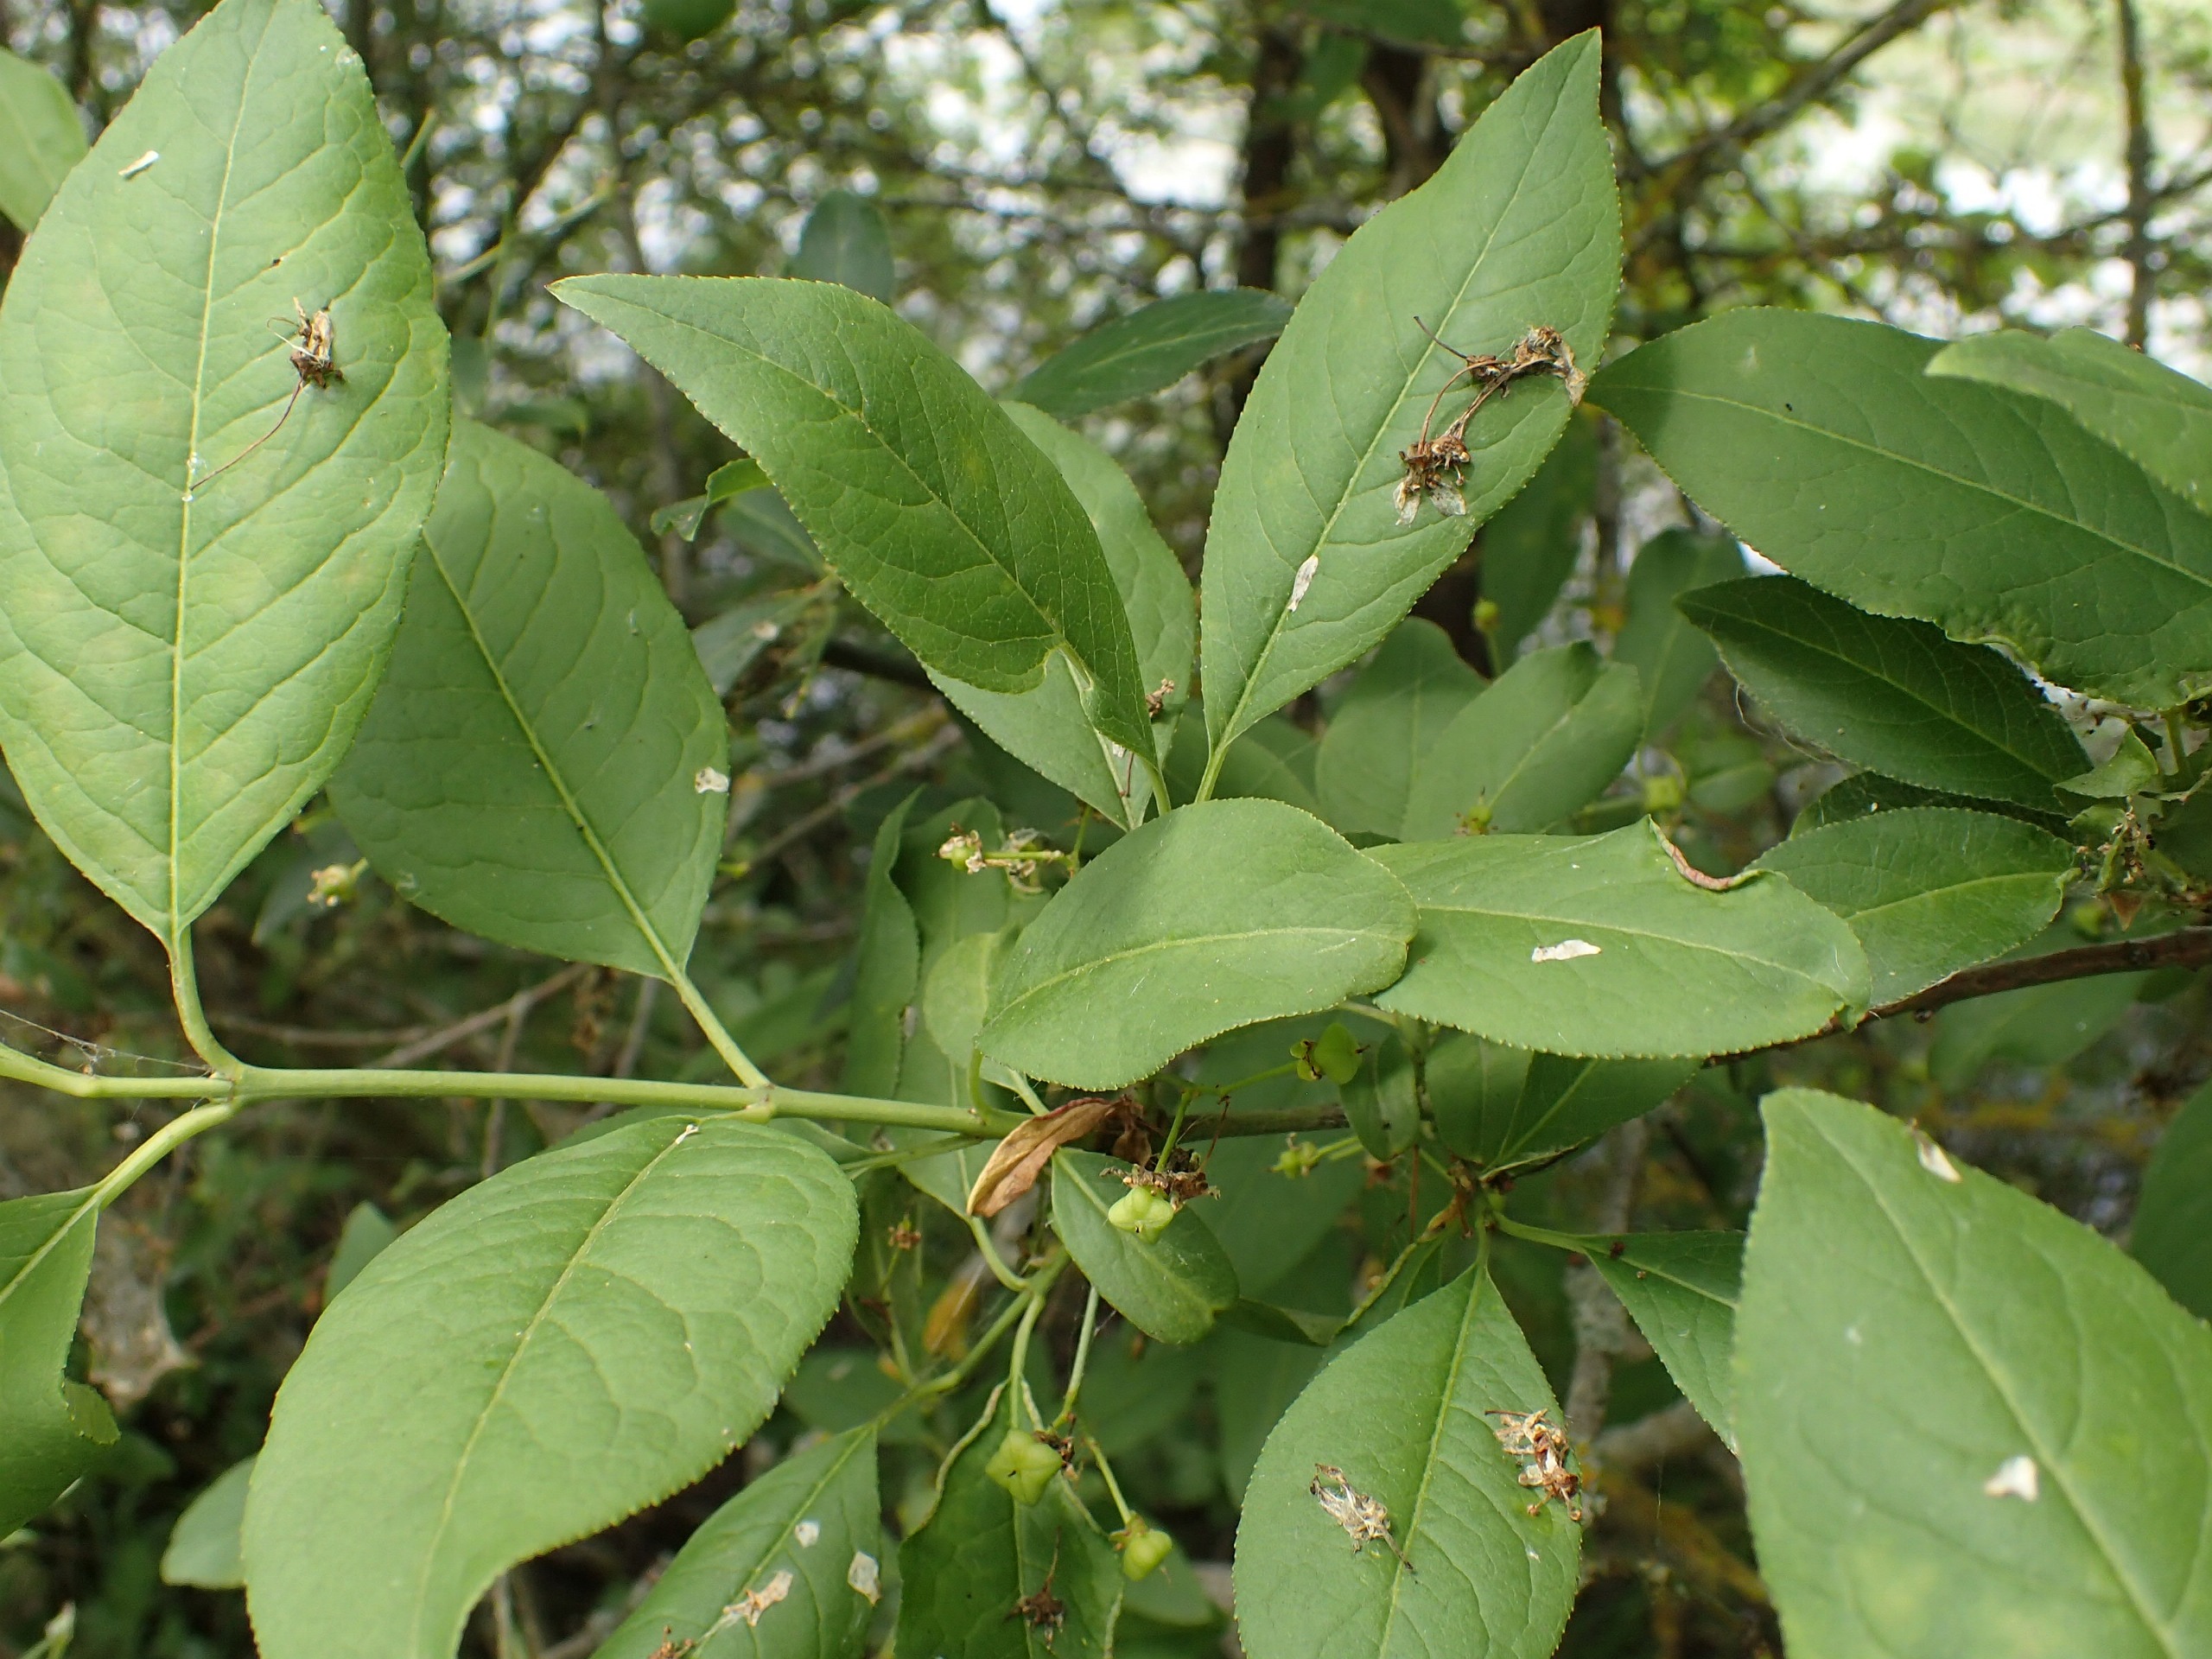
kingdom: Plantae
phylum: Tracheophyta
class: Magnoliopsida
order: Celastrales
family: Celastraceae
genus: Euonymus
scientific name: Euonymus europaeus
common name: Benved
